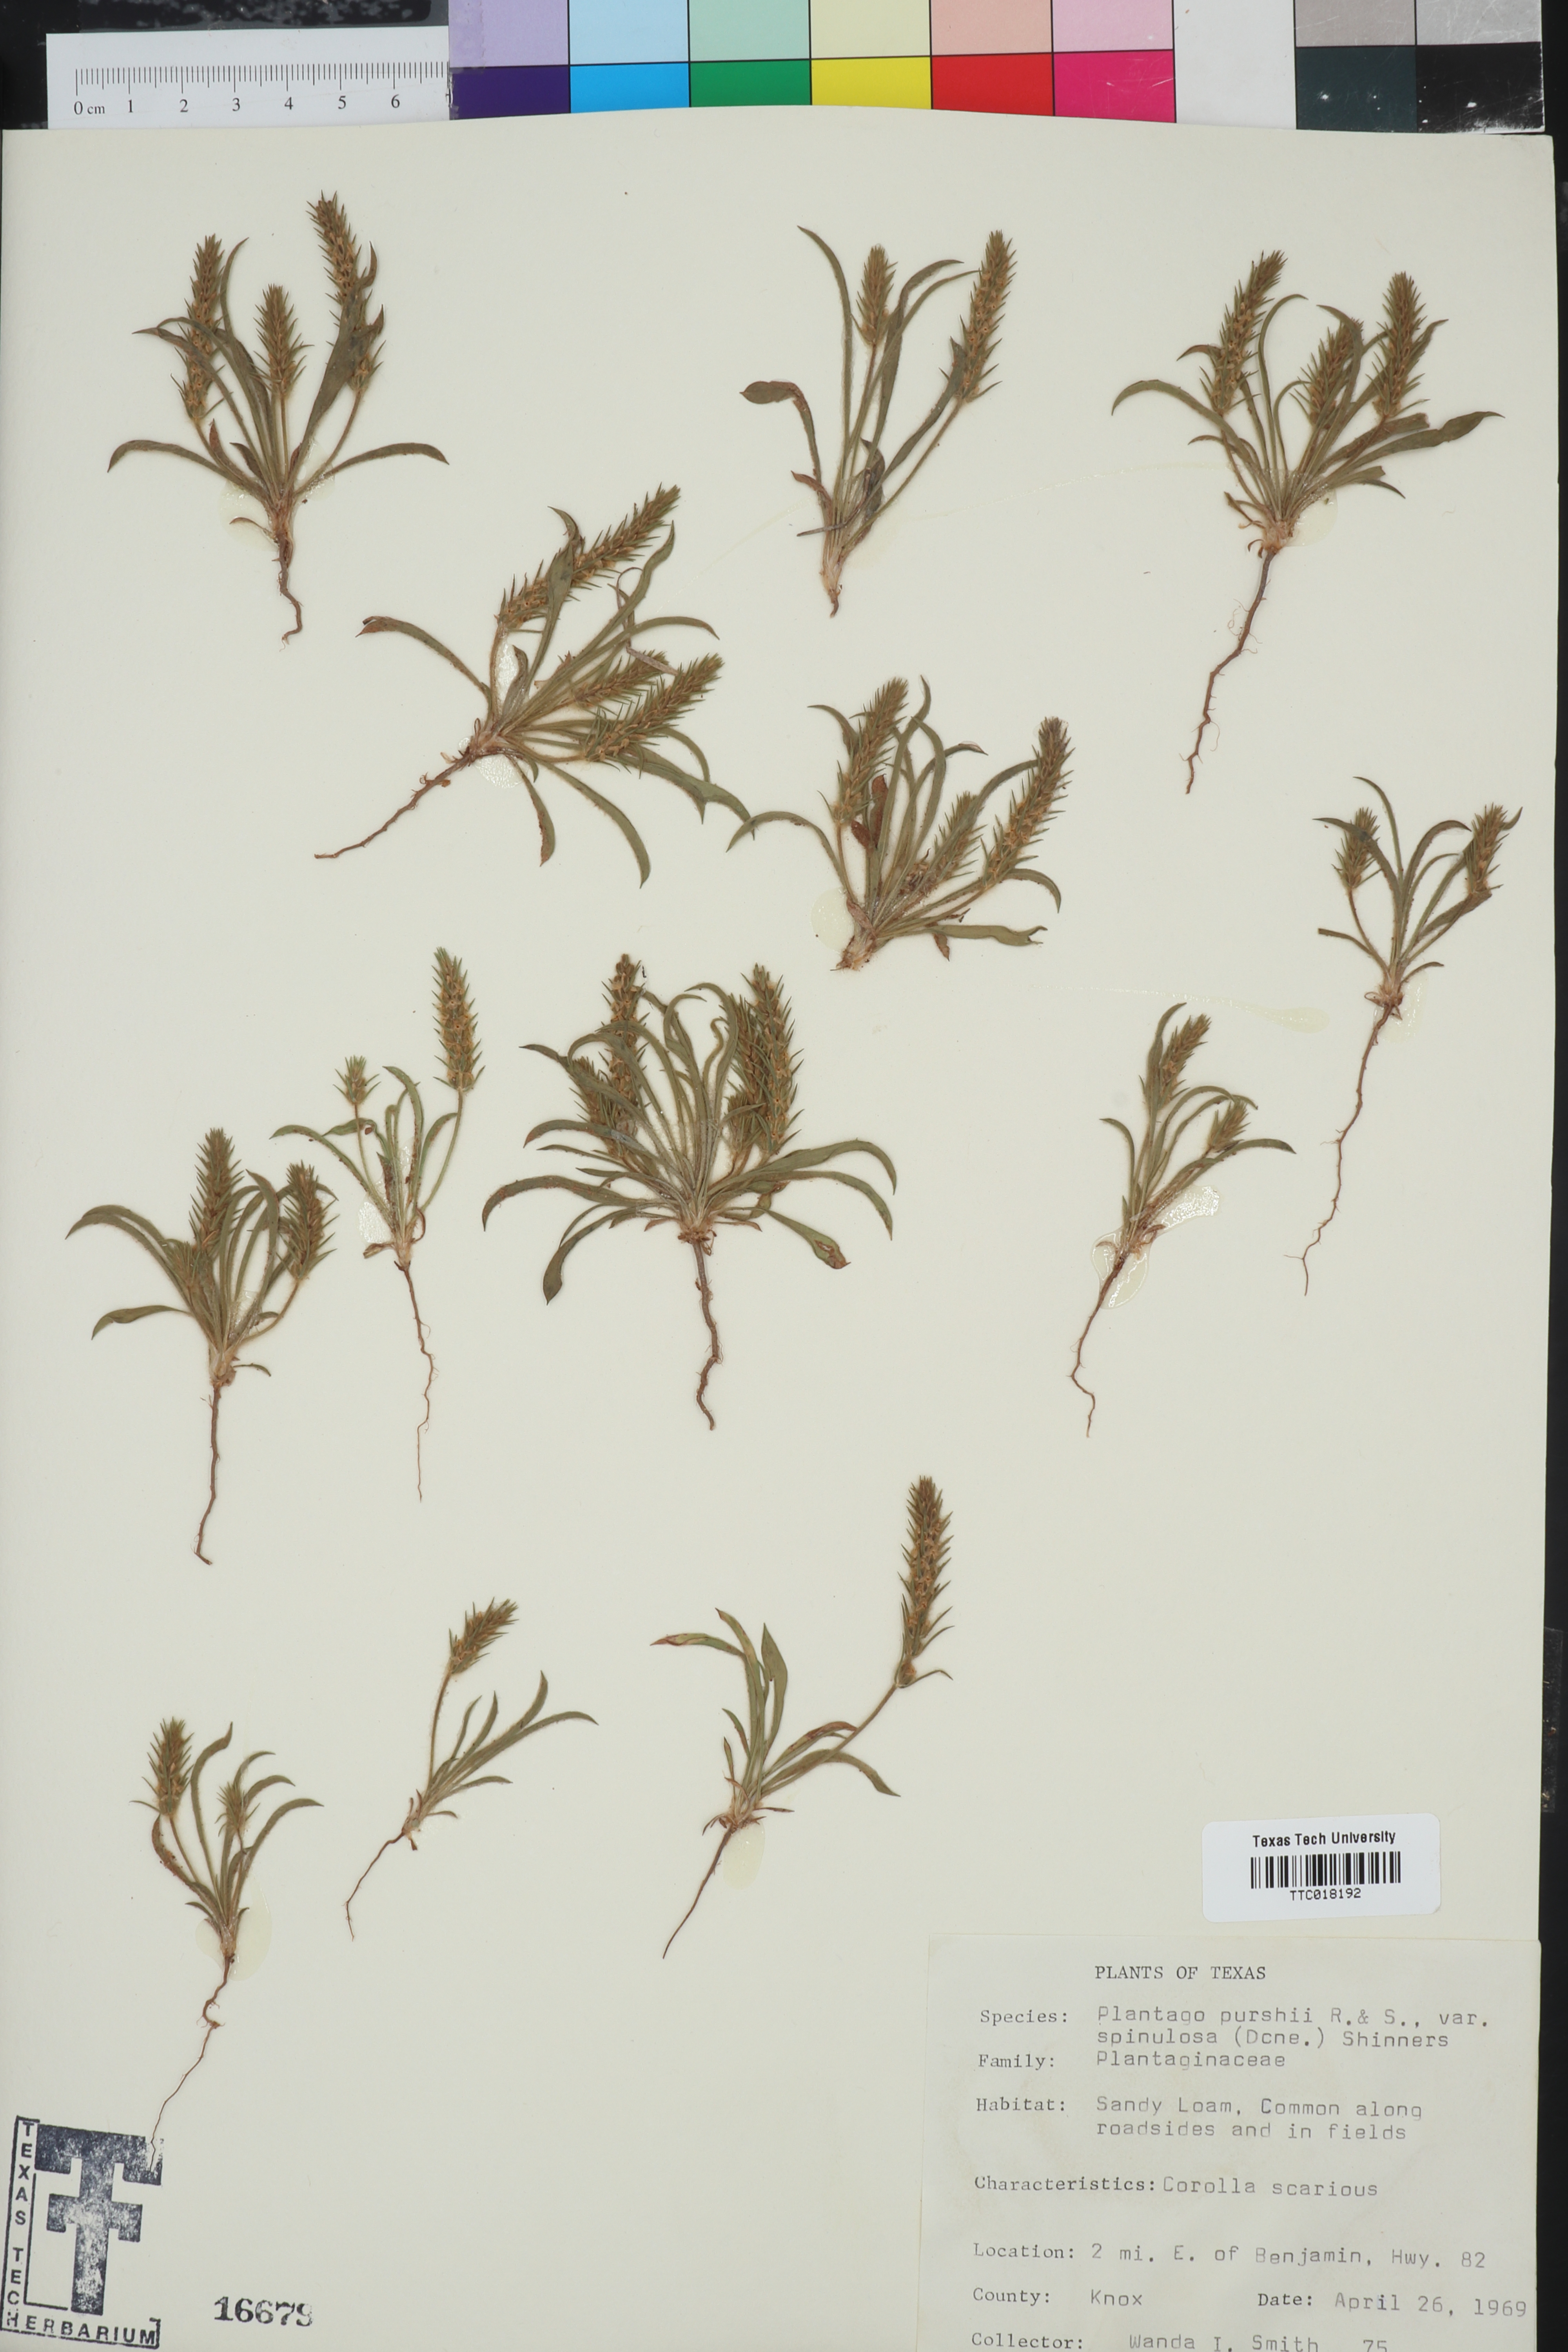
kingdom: Plantae
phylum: Tracheophyta
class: Magnoliopsida
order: Lamiales
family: Plantaginaceae
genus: Plantago
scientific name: Plantago patagonica
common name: Patagonia indian-wheat
